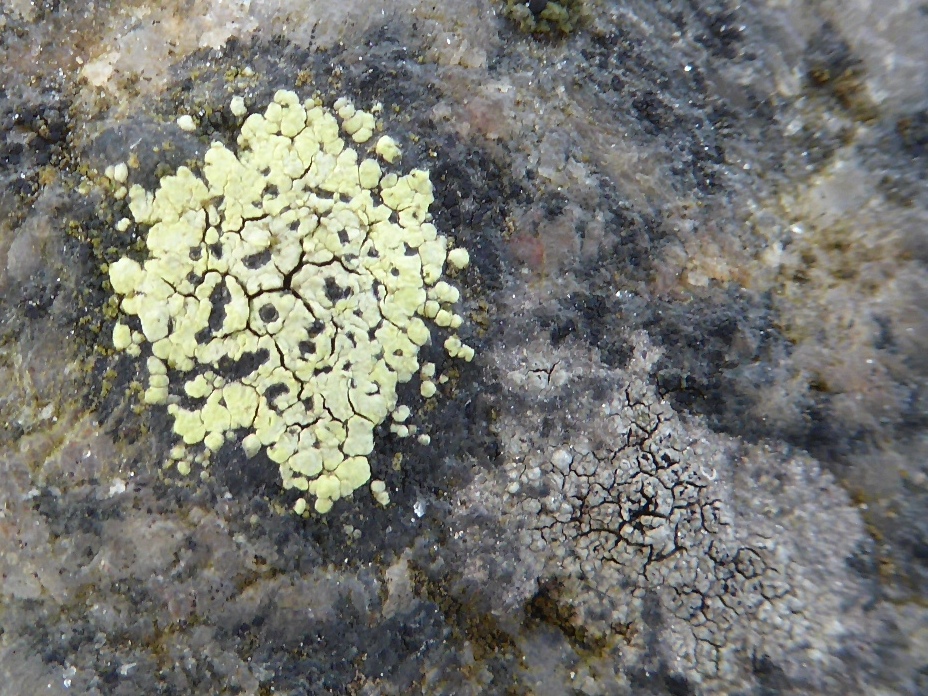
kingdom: Fungi
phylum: Ascomycota
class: Lecanoromycetes
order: Rhizocarpales
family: Rhizocarpaceae
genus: Rhizocarpon
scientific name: Rhizocarpon lecanorinum
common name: krave-landkortlav
